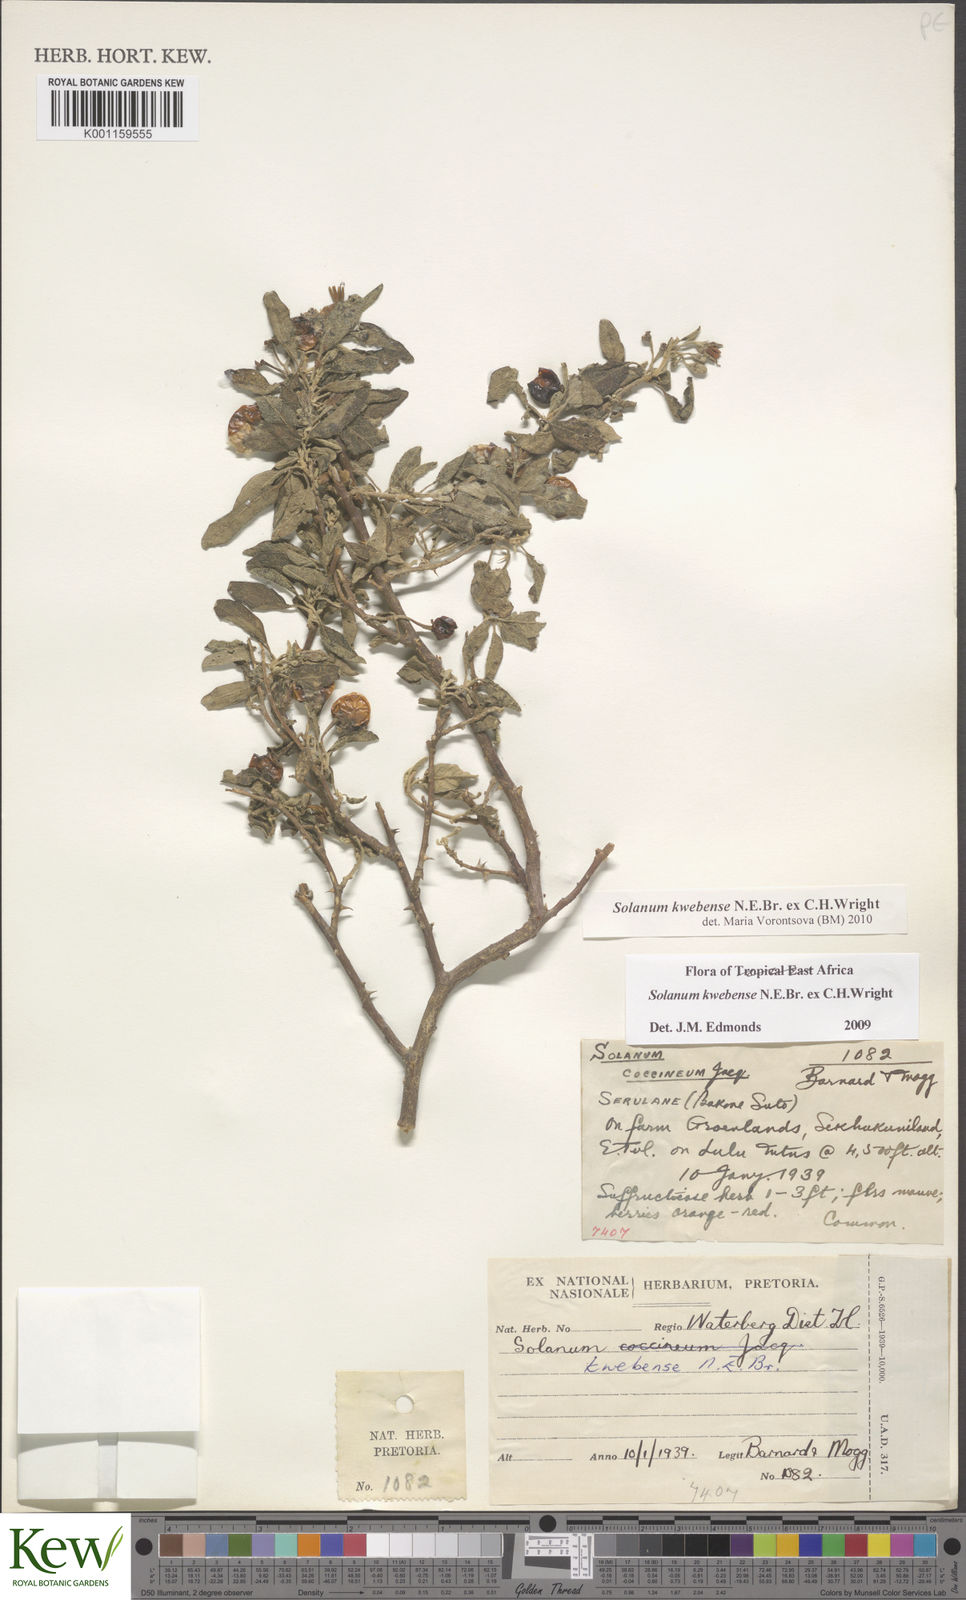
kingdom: Plantae
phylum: Tracheophyta
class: Magnoliopsida
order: Solanales
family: Solanaceae
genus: Solanum
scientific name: Solanum tettense
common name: Mozambique bitter apple
